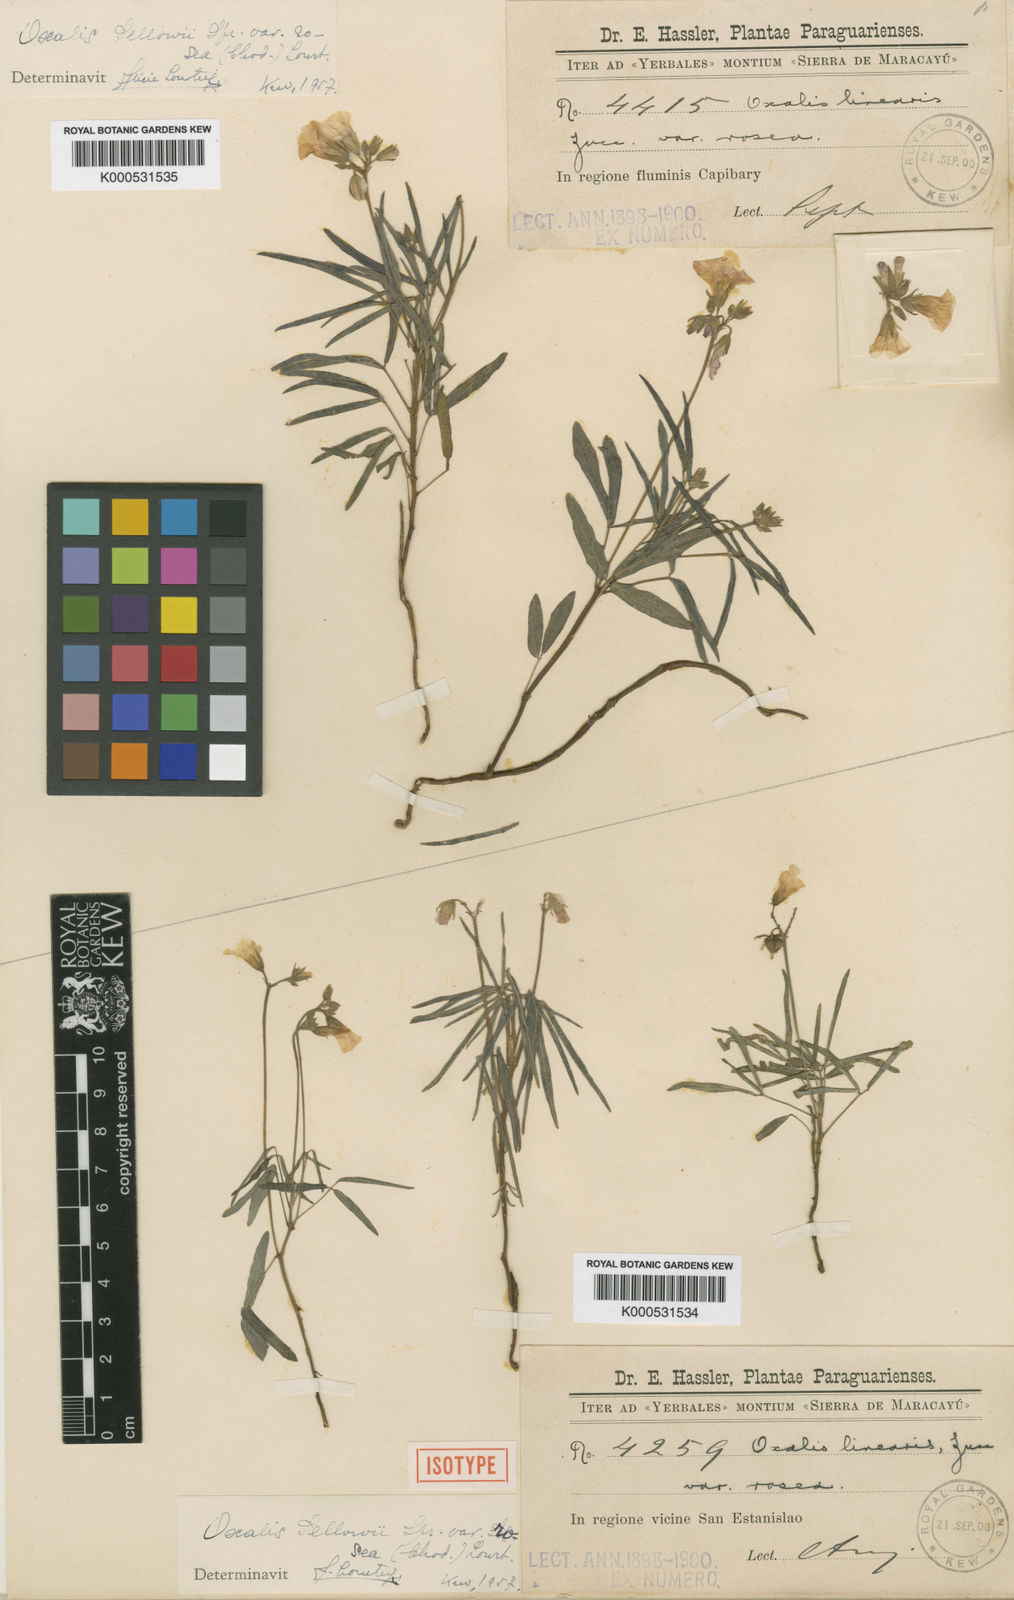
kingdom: Plantae
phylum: Tracheophyta
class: Magnoliopsida
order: Oxalidales
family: Oxalidaceae
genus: Oxalis
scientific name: Oxalis sellowii
